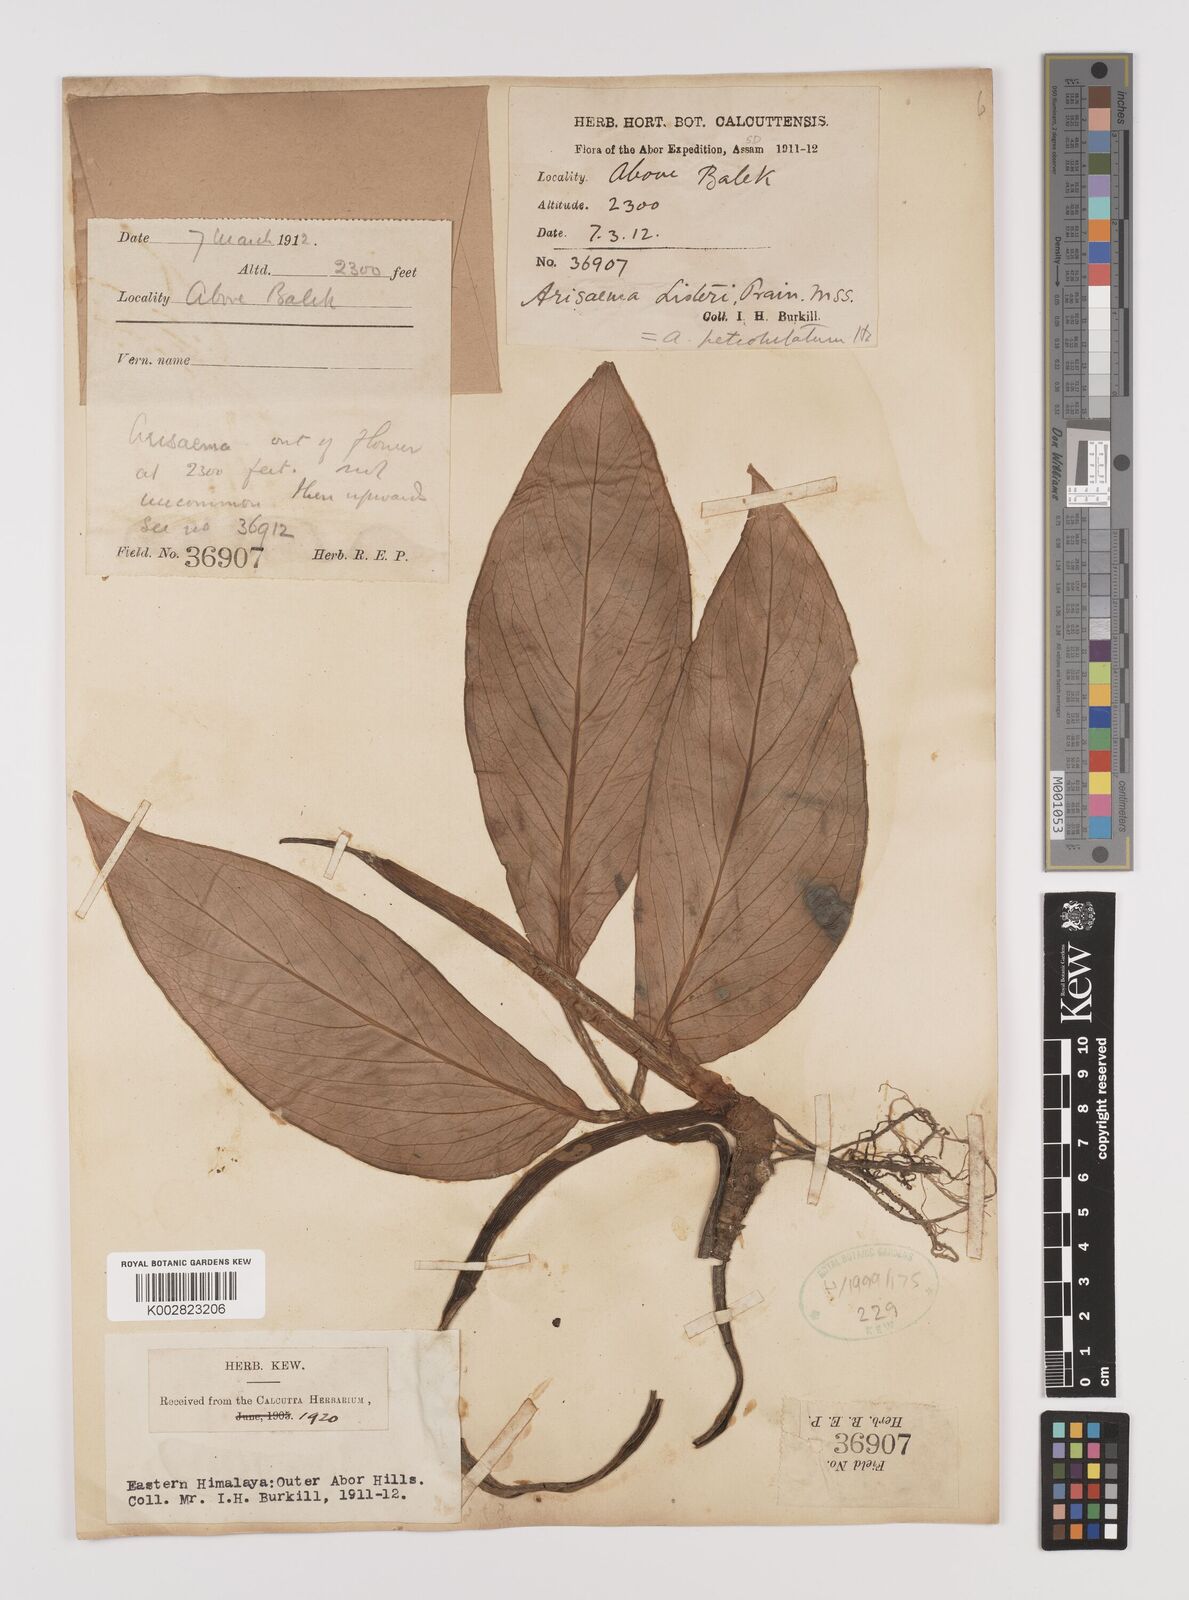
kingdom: Plantae
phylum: Tracheophyta
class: Liliopsida
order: Alismatales
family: Araceae
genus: Arisaema
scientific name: Arisaema petiolulatum
